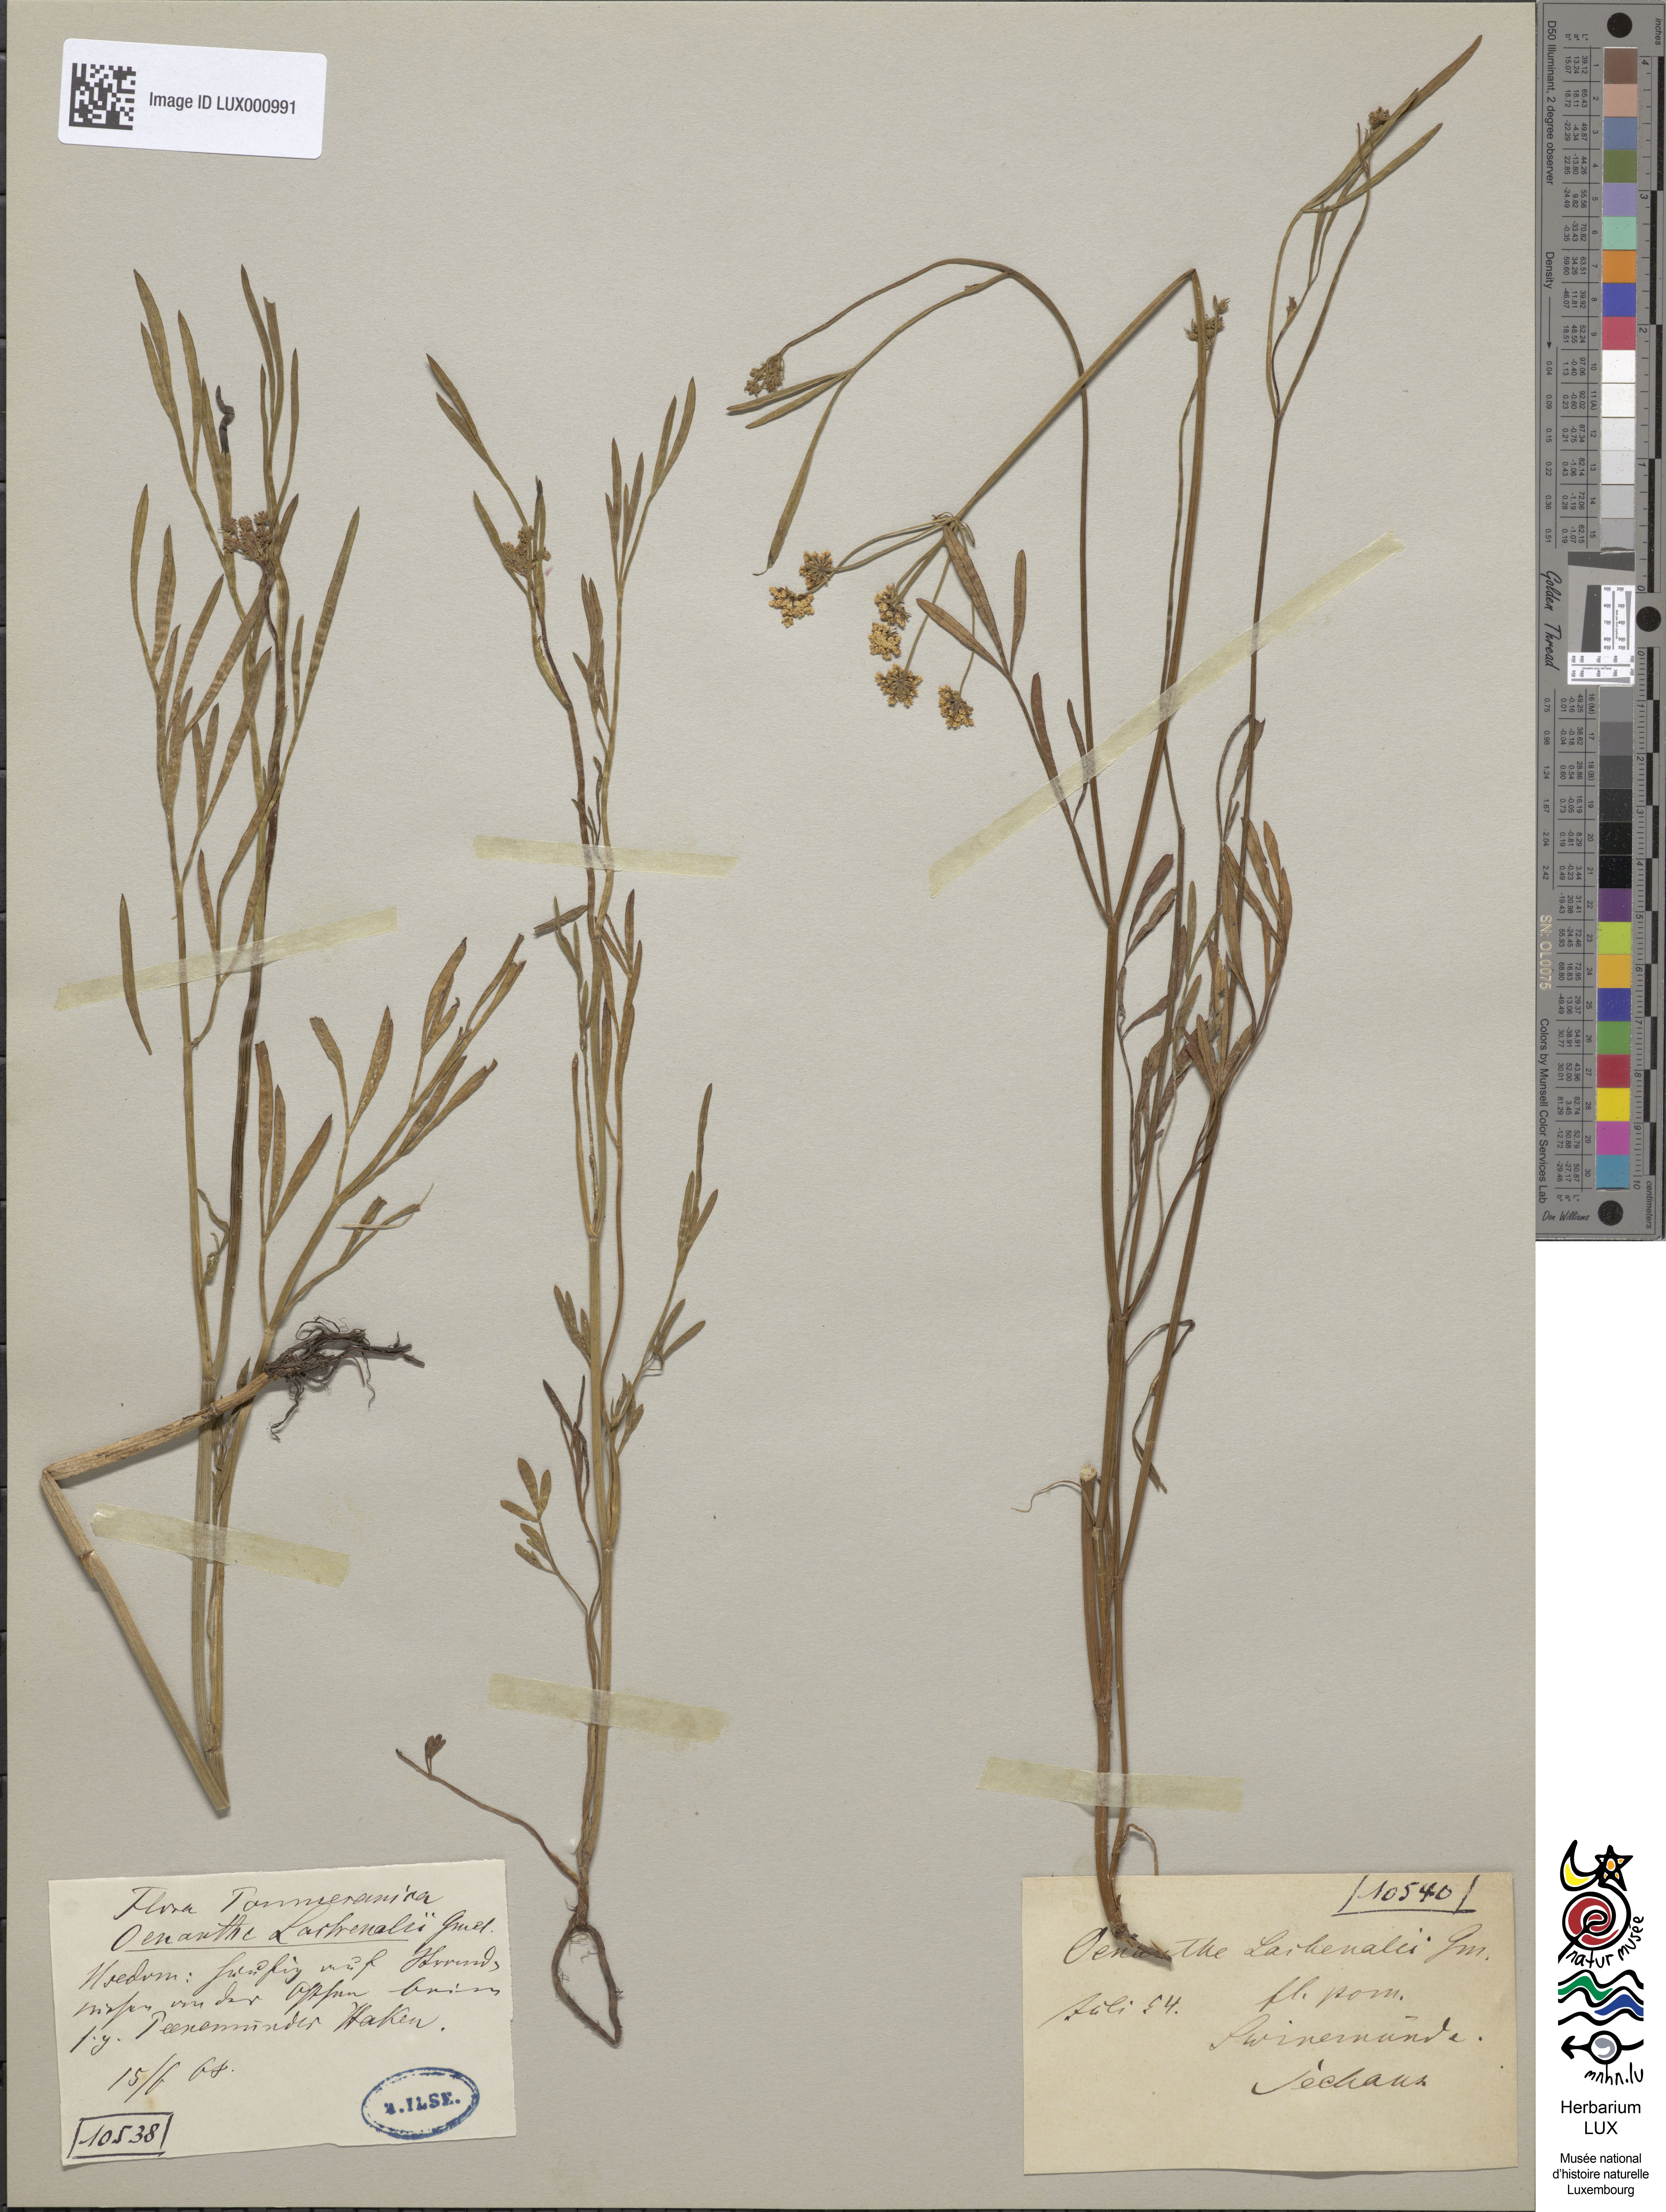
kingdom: Plantae
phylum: Tracheophyta
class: Magnoliopsida
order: Apiales
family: Apiaceae
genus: Oenanthe
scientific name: Oenanthe lachenalii
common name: Parsley water-dropwort
